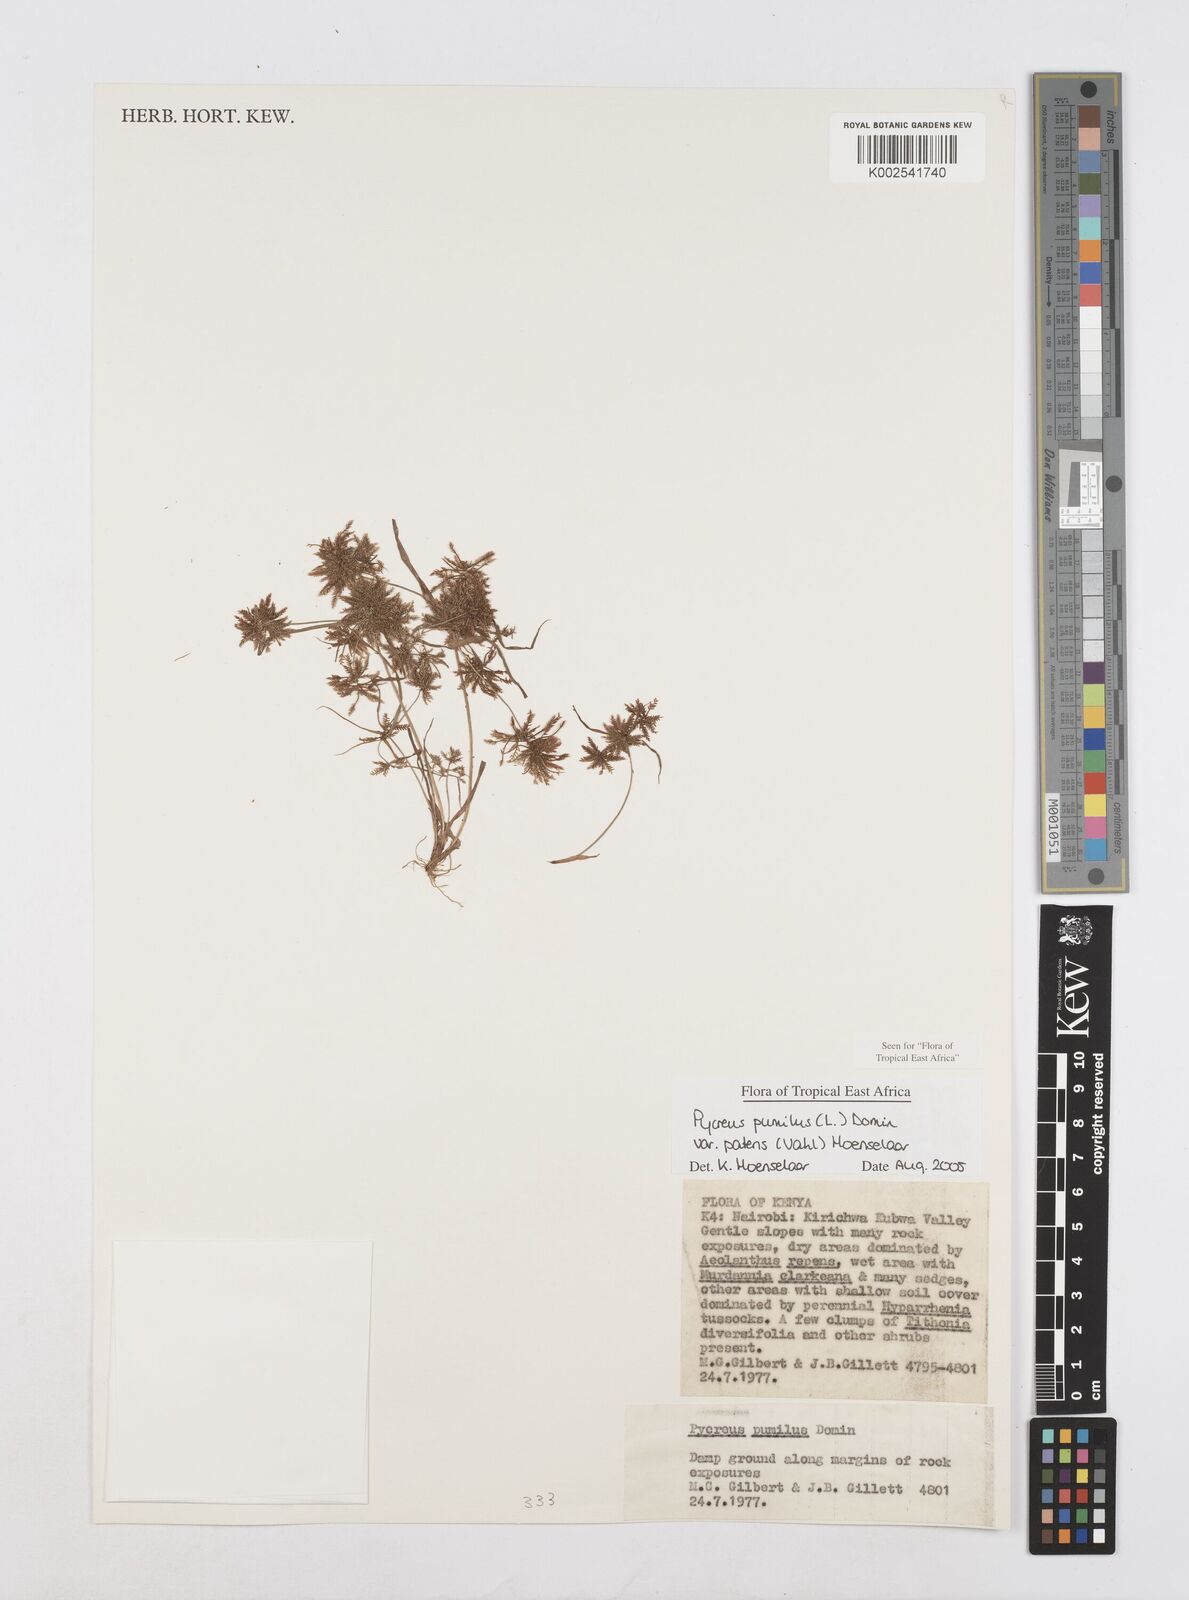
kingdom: Plantae
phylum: Tracheophyta
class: Liliopsida
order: Poales
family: Cyperaceae
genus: Cyperus
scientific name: Cyperus pumilus
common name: Low flatsedge
